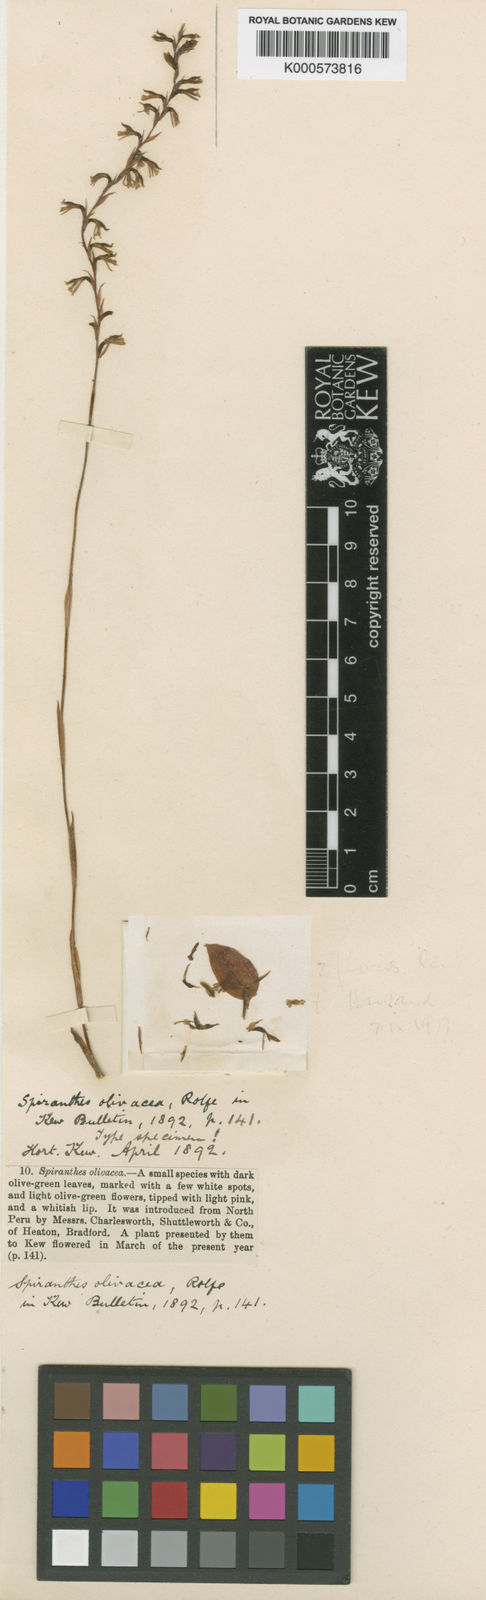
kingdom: Plantae
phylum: Tracheophyta
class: Liliopsida
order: Asparagales
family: Orchidaceae
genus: Cyclopogon
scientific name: Cyclopogon olivaceus
